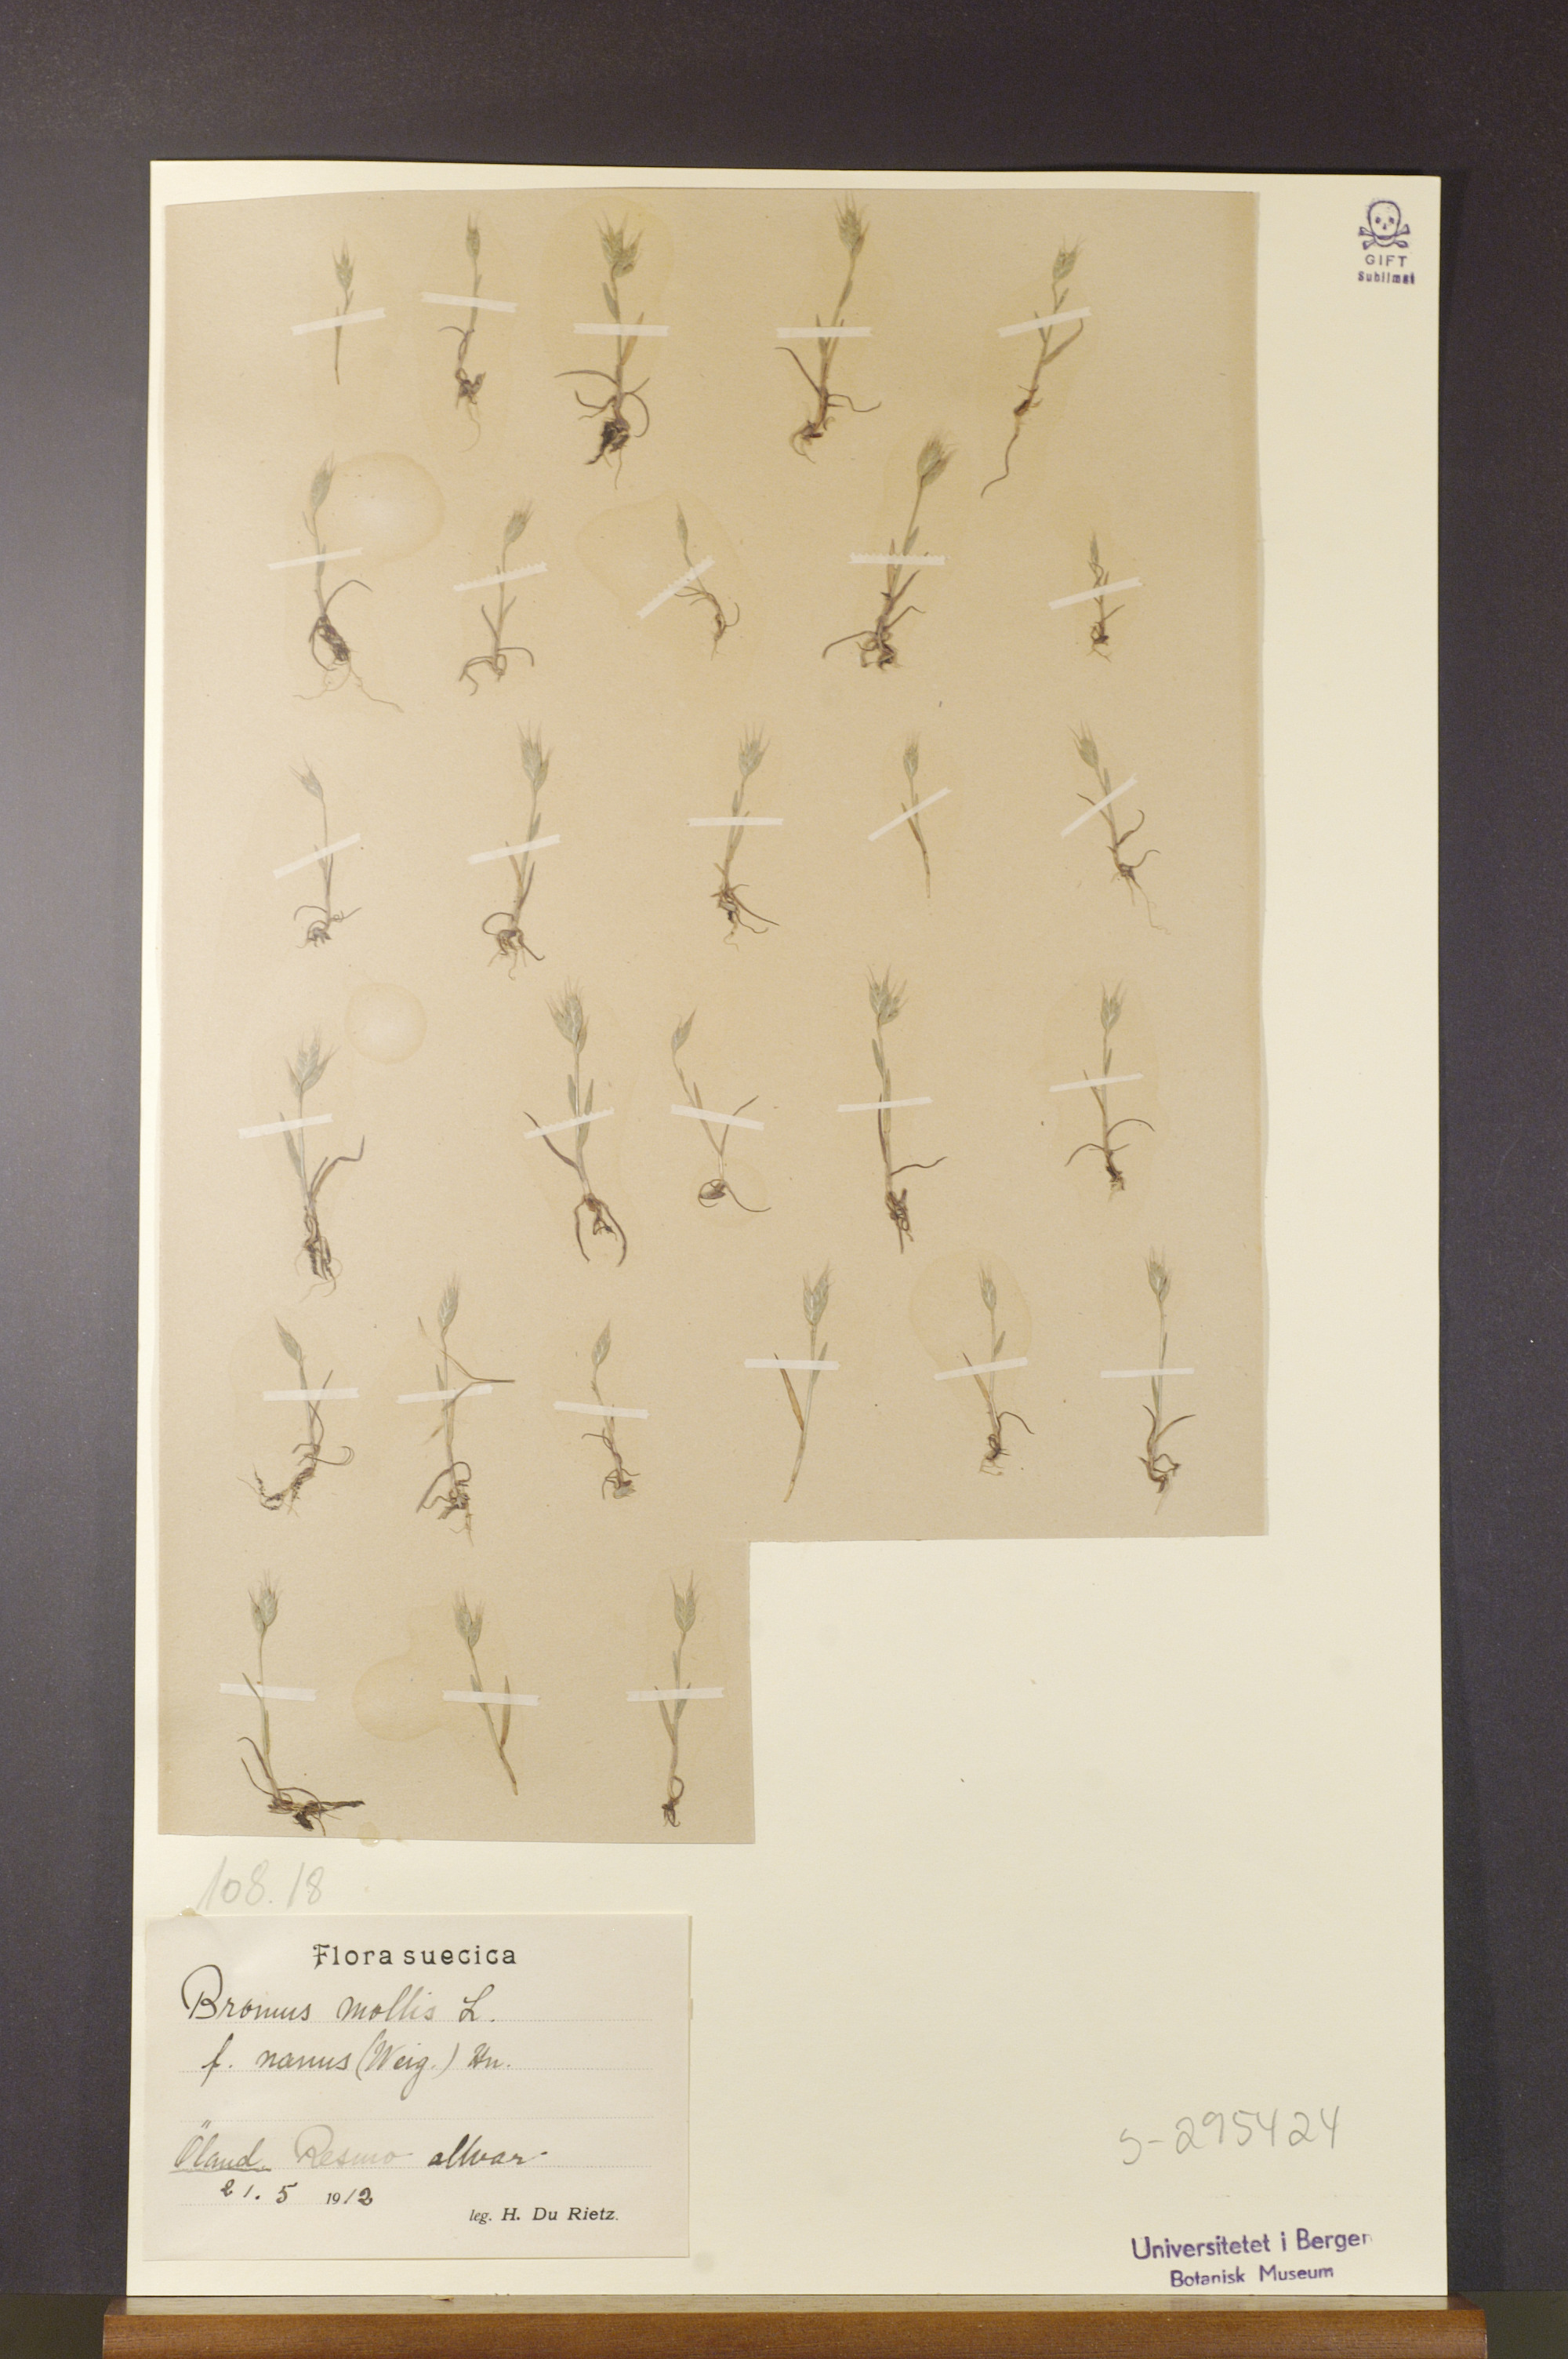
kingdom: Plantae
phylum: Tracheophyta
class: Liliopsida
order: Poales
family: Poaceae
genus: Bromus
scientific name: Bromus hordeaceus
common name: Soft brome
